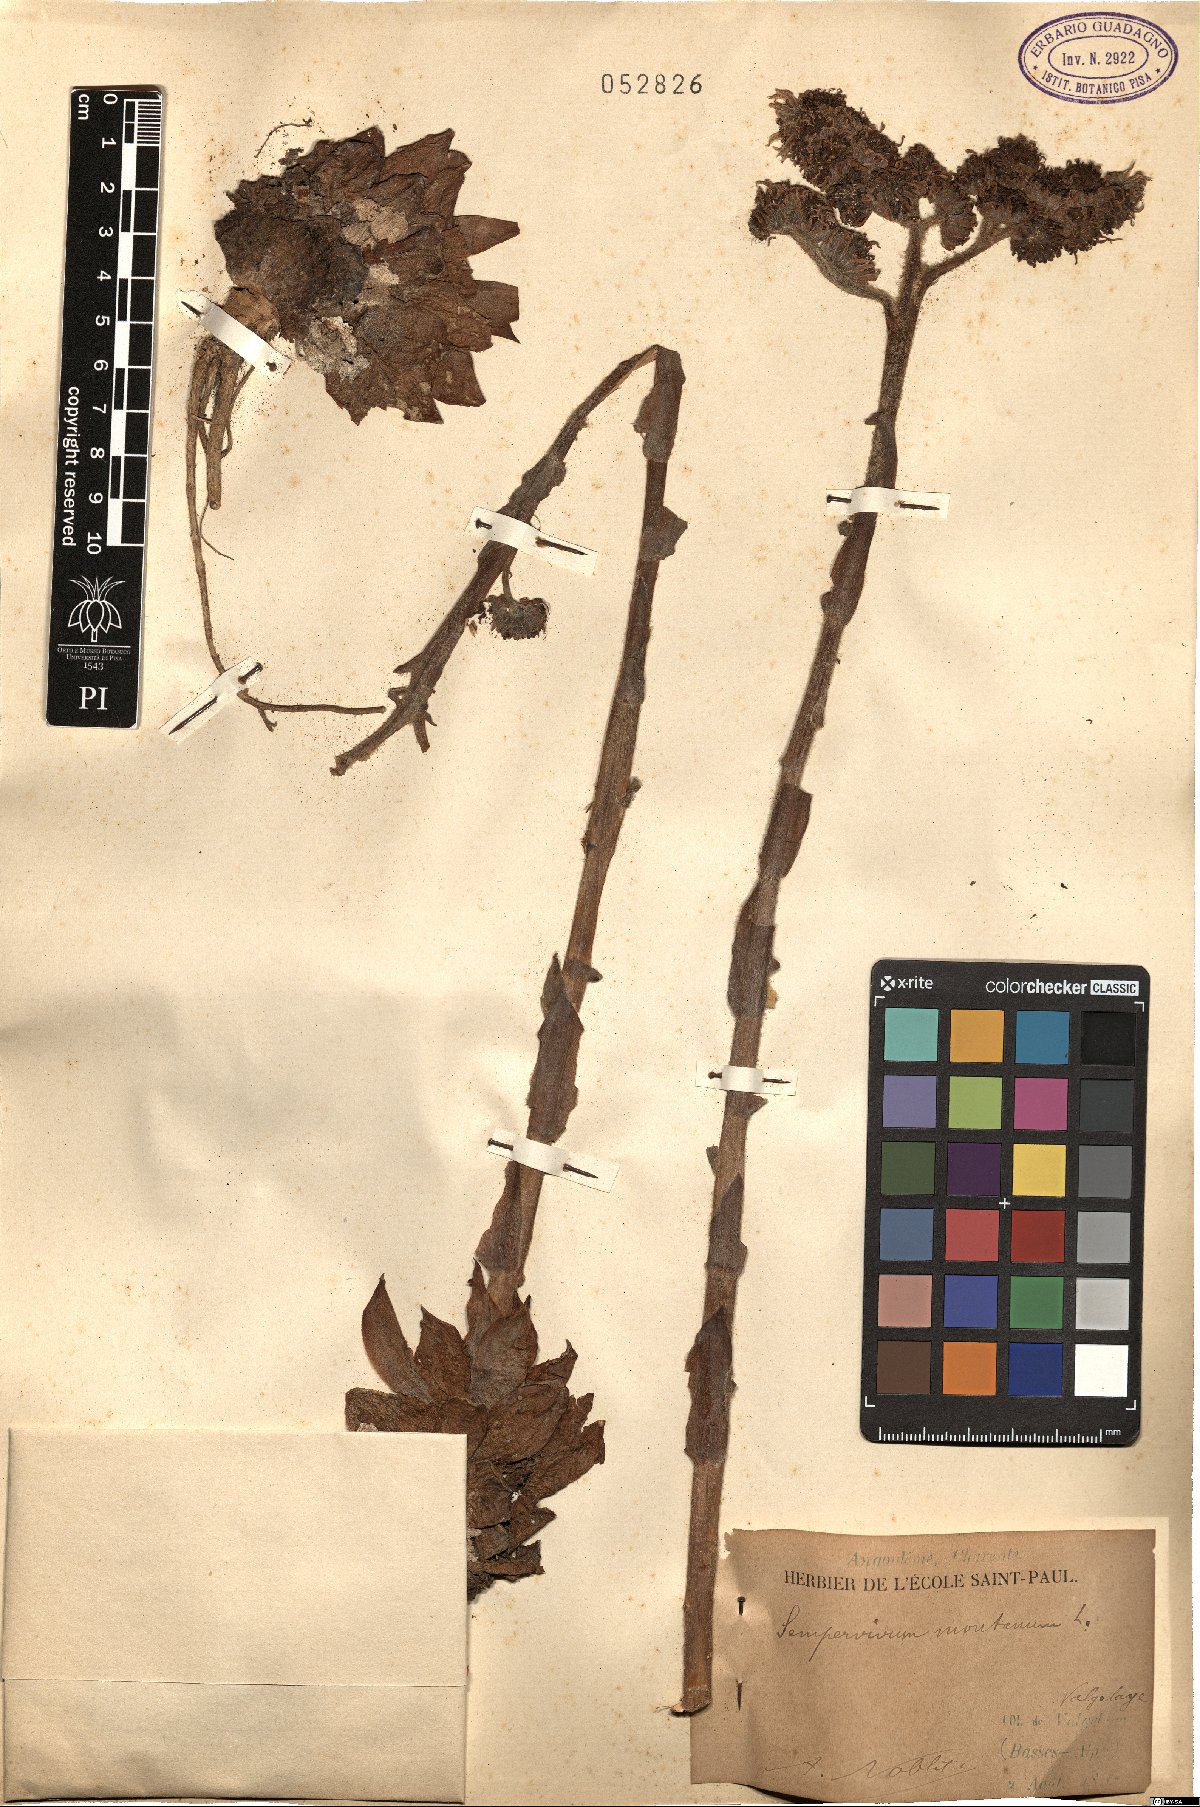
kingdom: Plantae
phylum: Tracheophyta
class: Magnoliopsida
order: Saxifragales
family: Crassulaceae
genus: Sempervivum
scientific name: Sempervivum montanum
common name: Mountain house-leek
